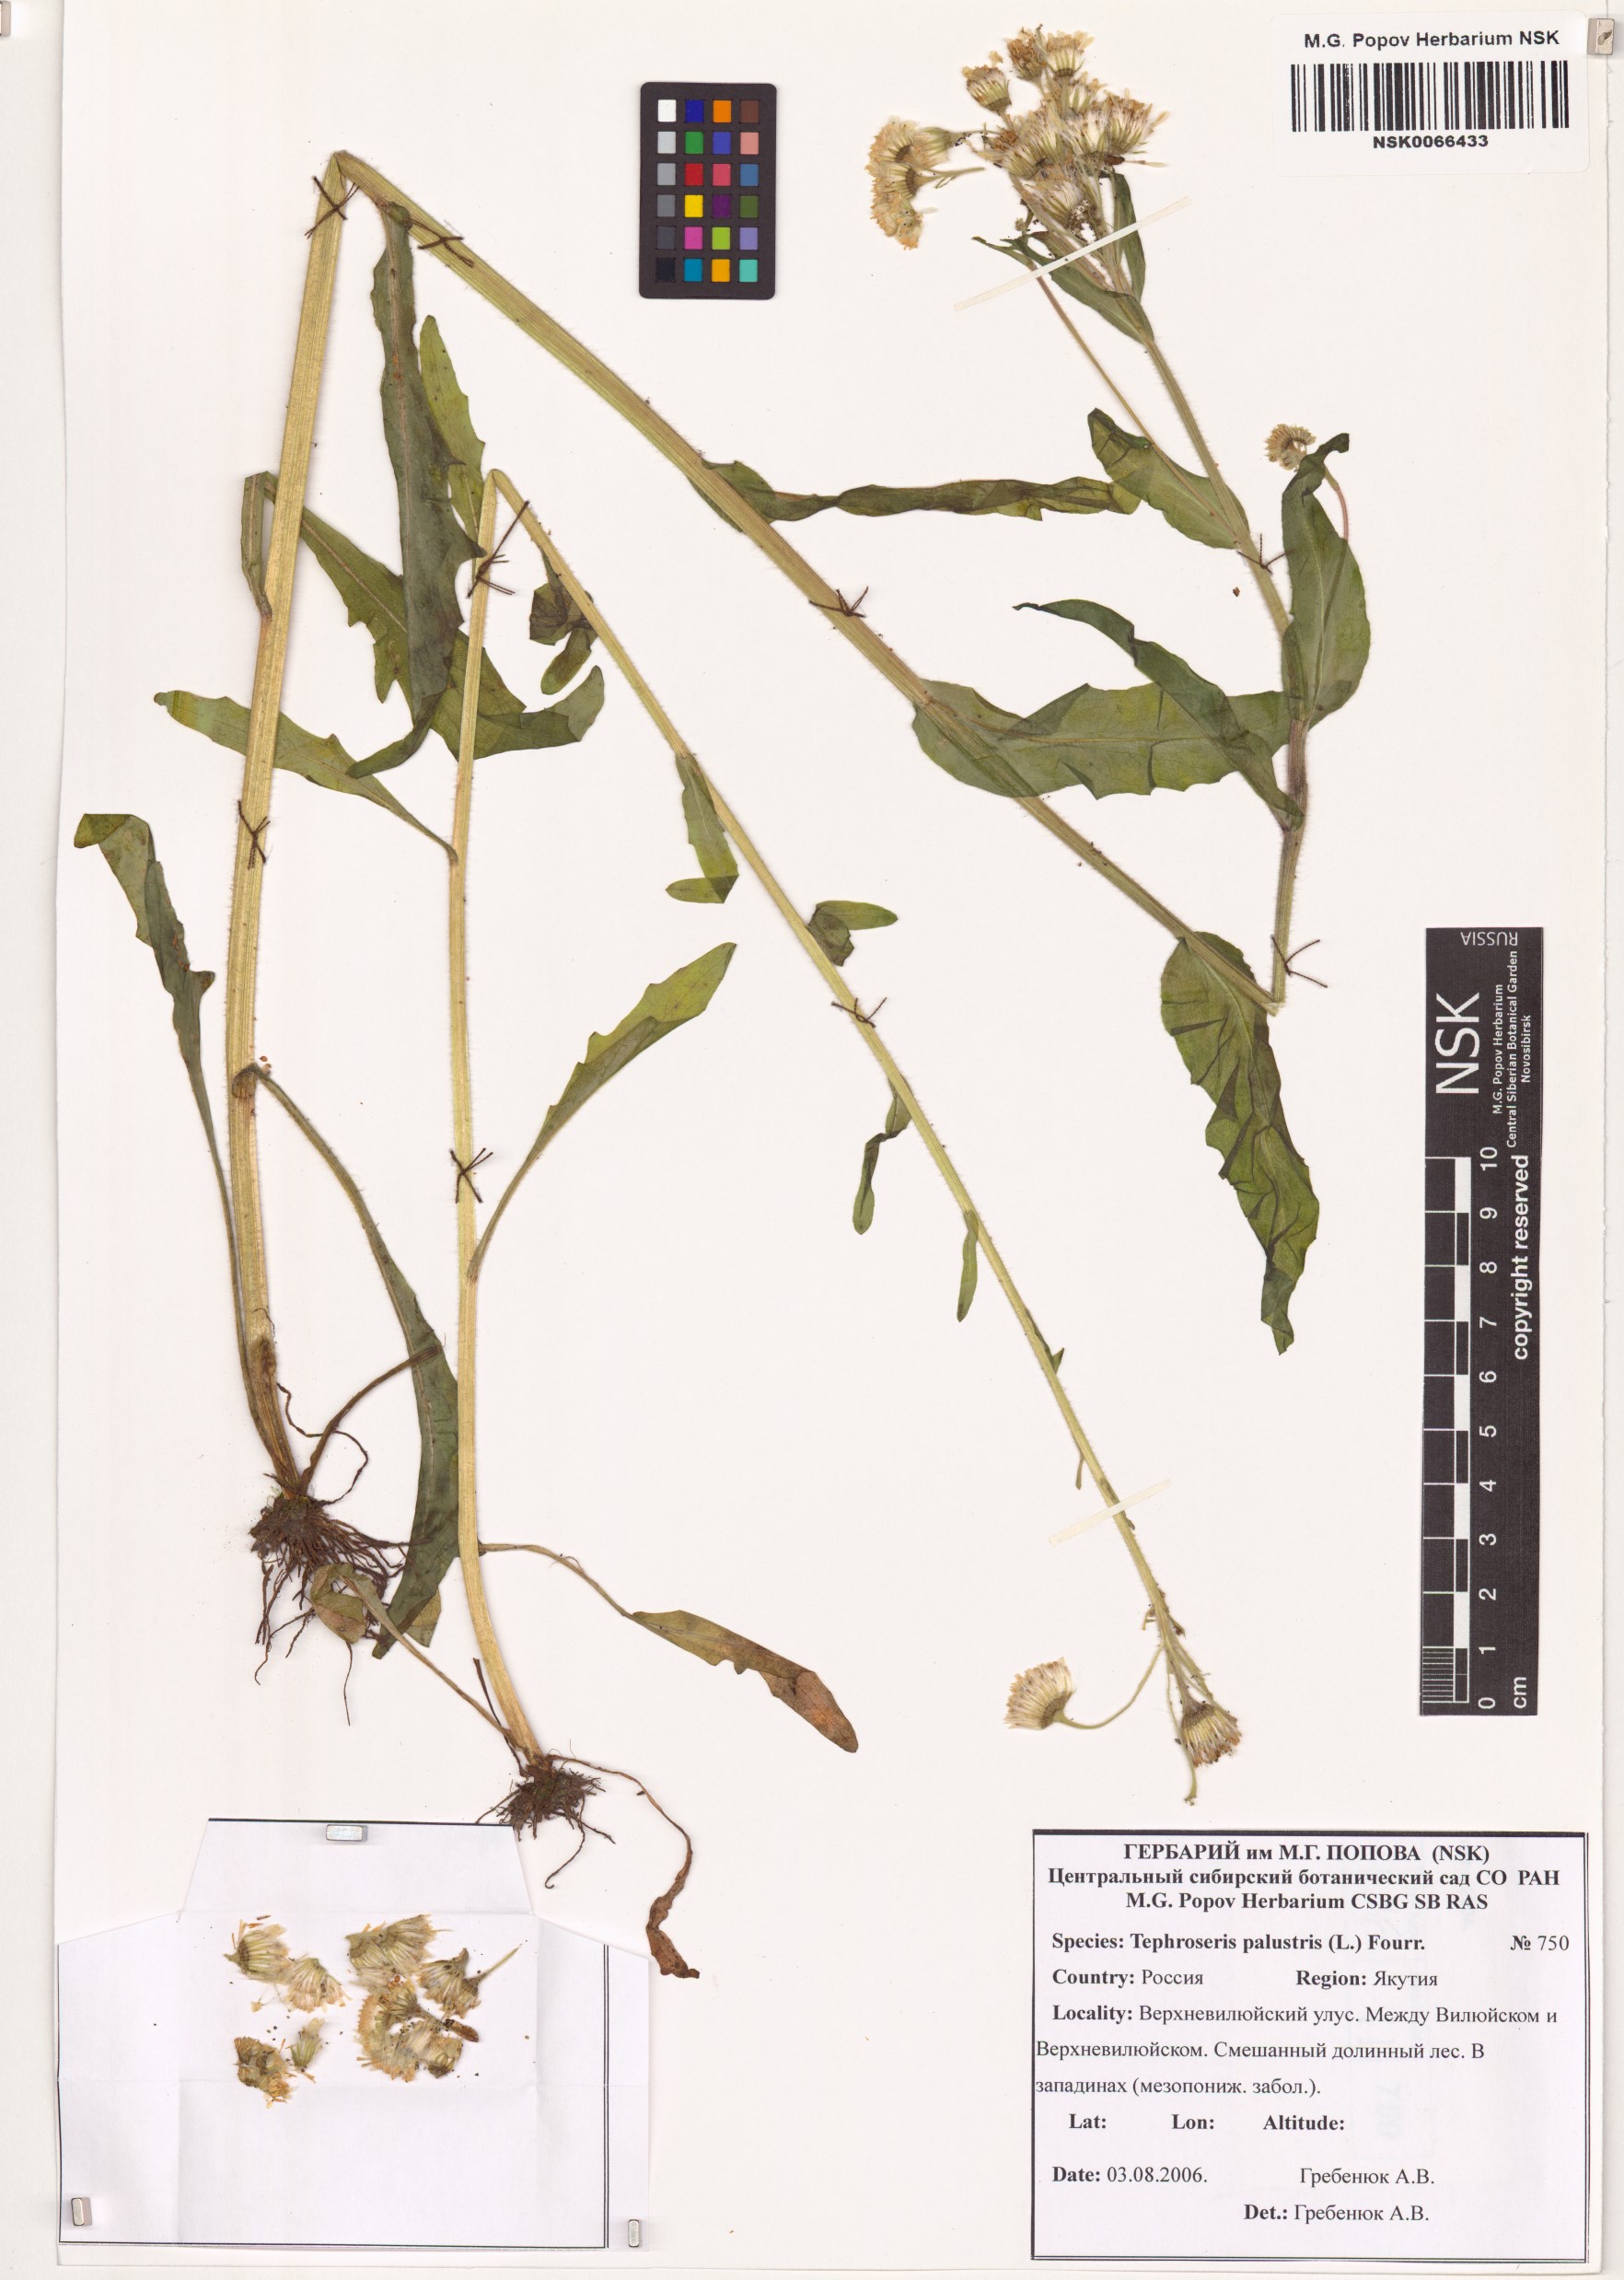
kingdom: Plantae
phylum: Tracheophyta
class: Magnoliopsida
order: Asterales
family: Asteraceae
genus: Tephroseris
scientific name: Tephroseris palustris
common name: Marsh fleawort
